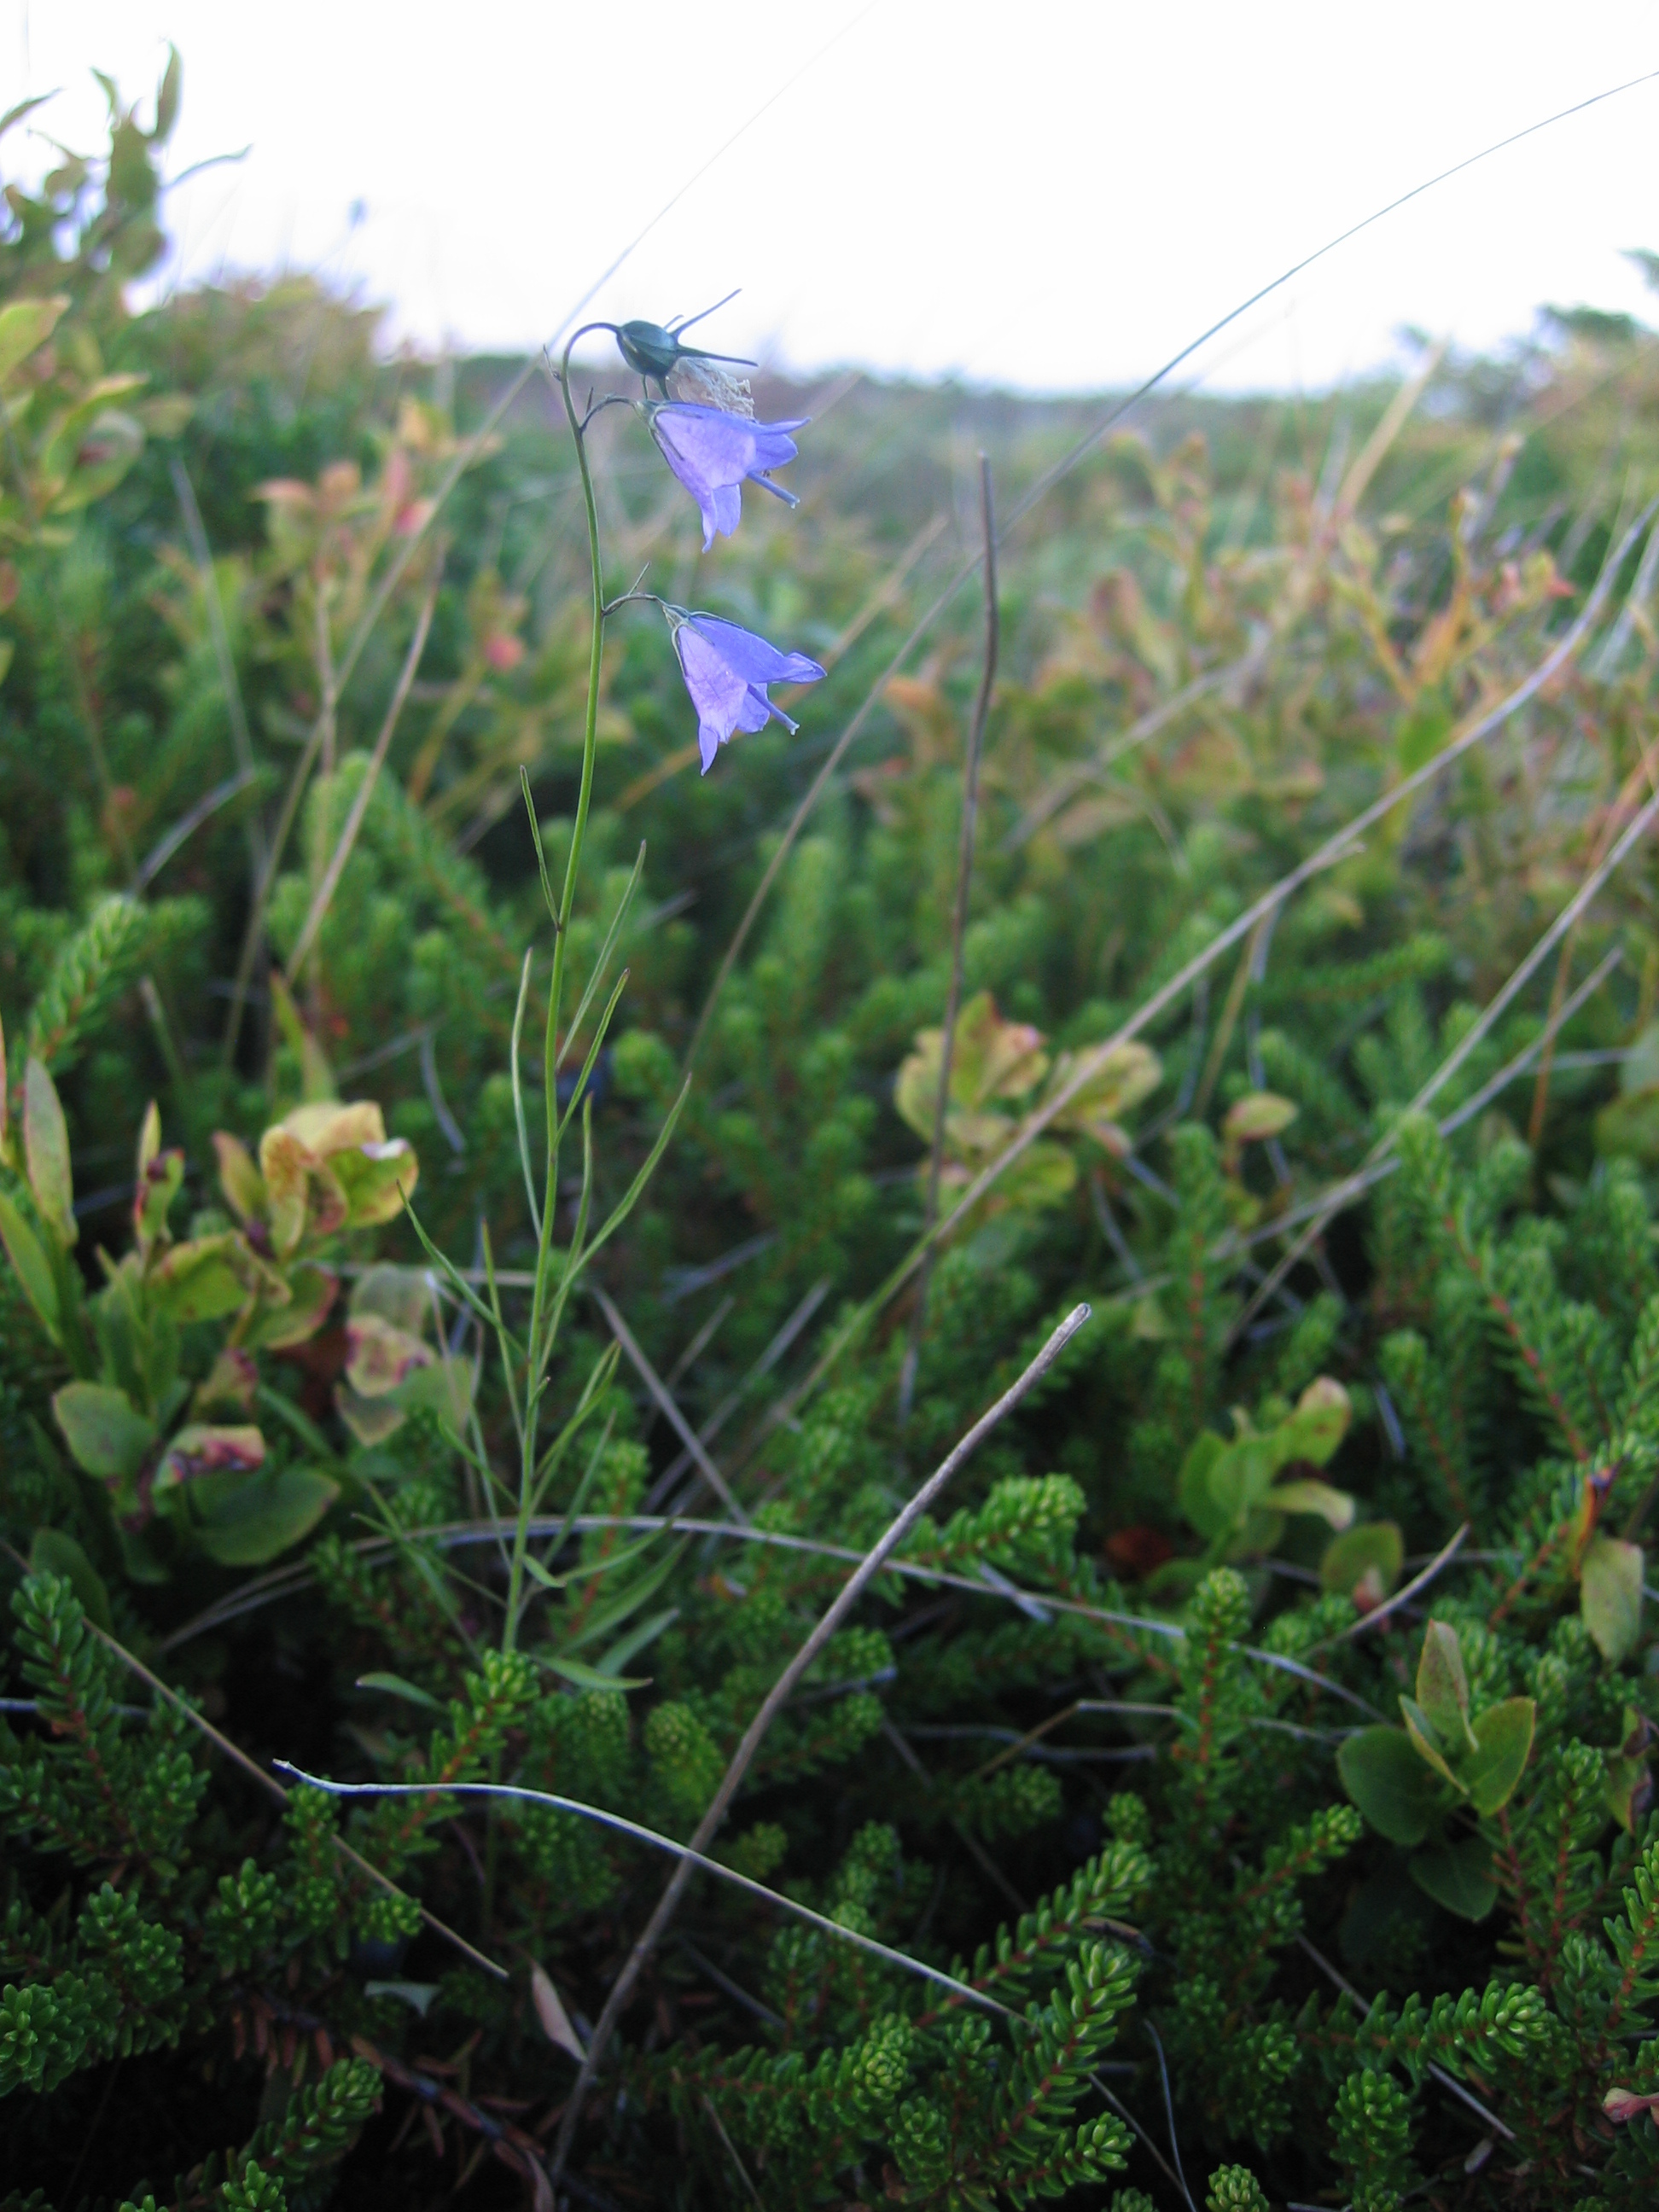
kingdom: Plantae
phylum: Tracheophyta
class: Magnoliopsida
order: Asterales
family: Campanulaceae
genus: Campanula
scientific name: Campanula rotundifolia
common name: Harebell
